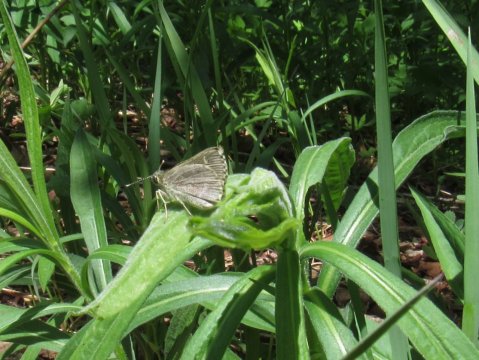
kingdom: Animalia
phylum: Arthropoda
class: Insecta
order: Lepidoptera
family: Hesperiidae
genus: Mastor
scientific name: Mastor hegon
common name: Pepper and Salt Skipper
